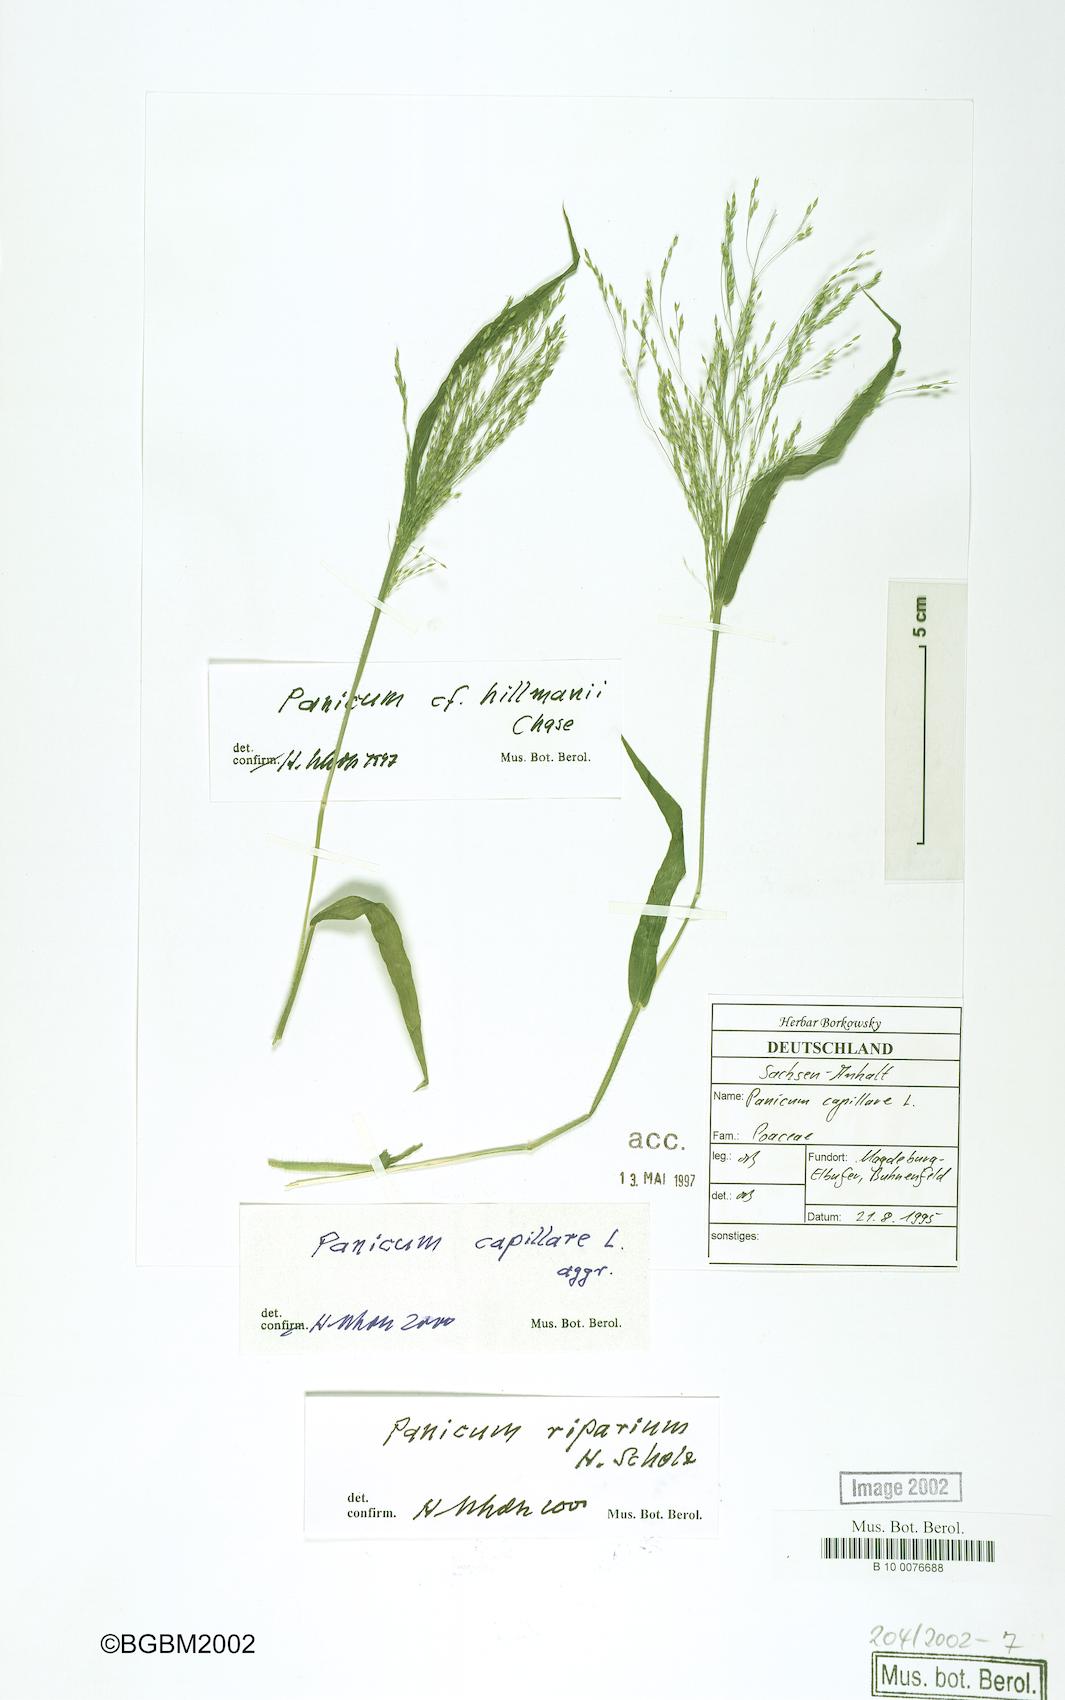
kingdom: Plantae
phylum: Tracheophyta
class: Liliopsida
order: Poales
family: Poaceae
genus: Panicum
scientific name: Panicum capillare
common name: Witch-grass
